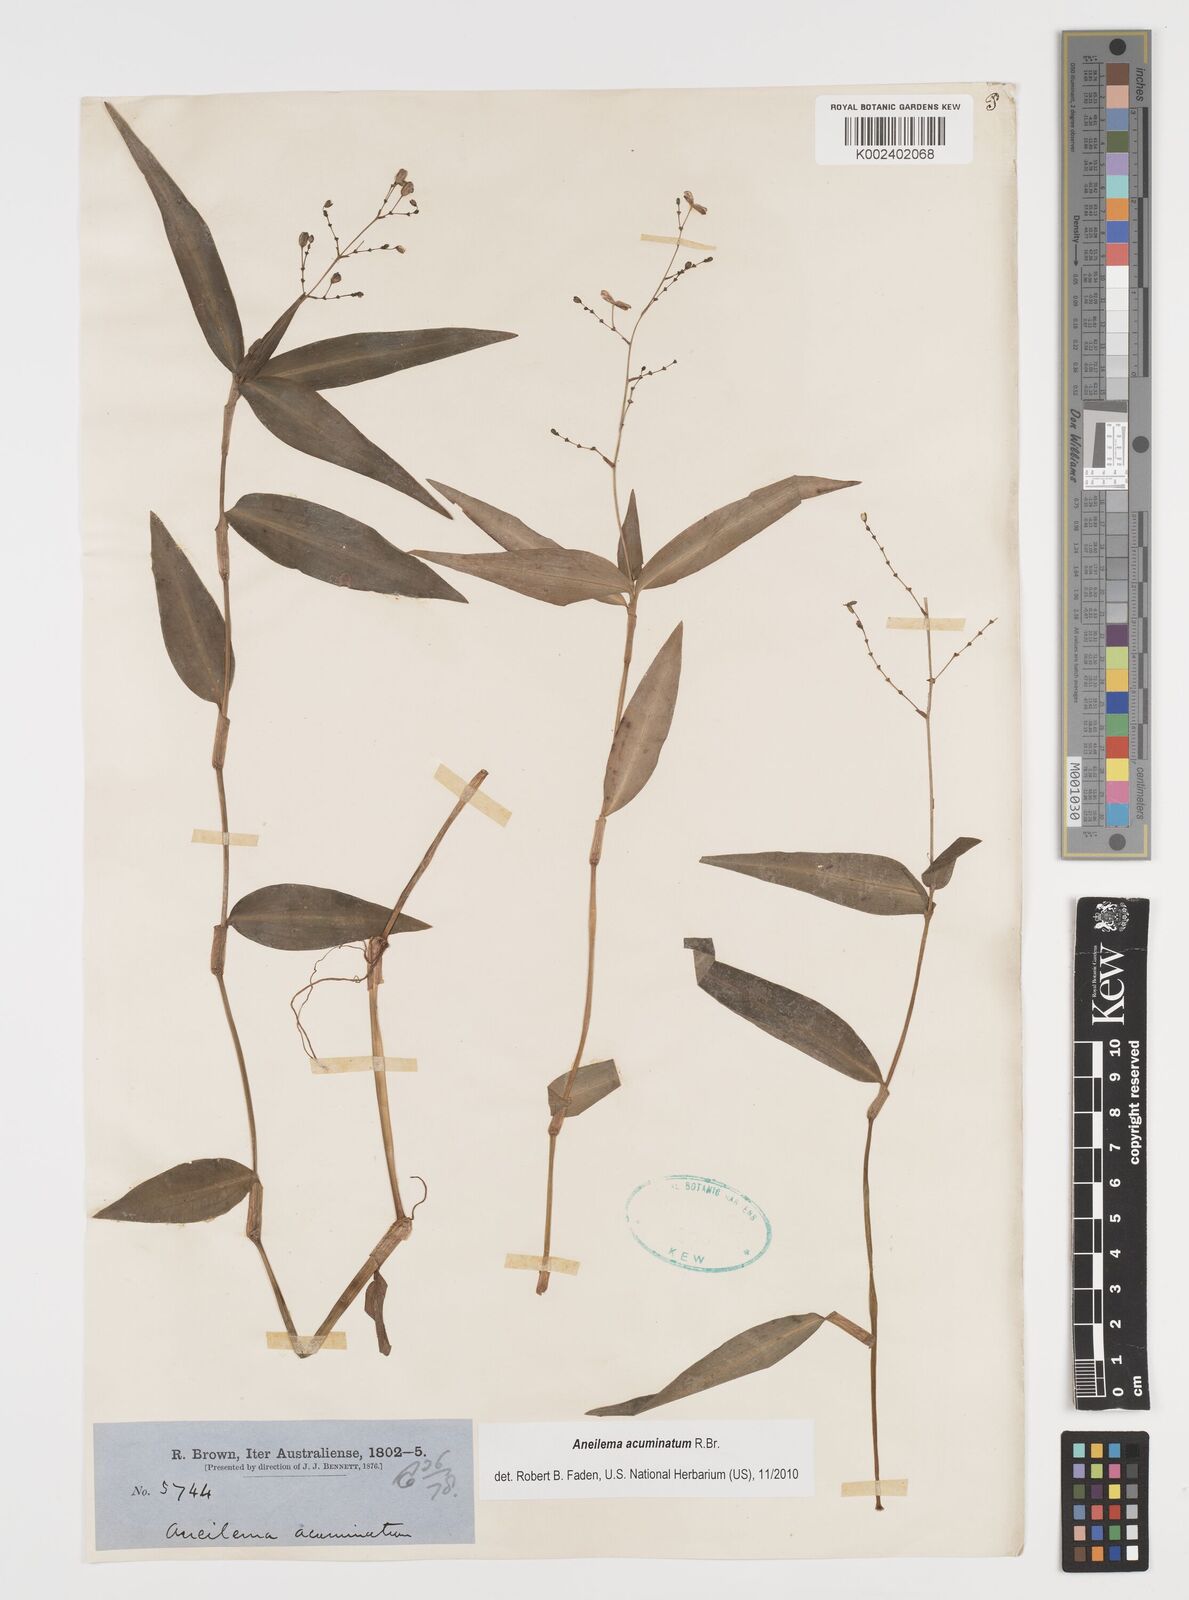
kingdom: Plantae
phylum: Tracheophyta
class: Liliopsida
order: Commelinales
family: Commelinaceae
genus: Aneilema
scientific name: Aneilema acuminatum
